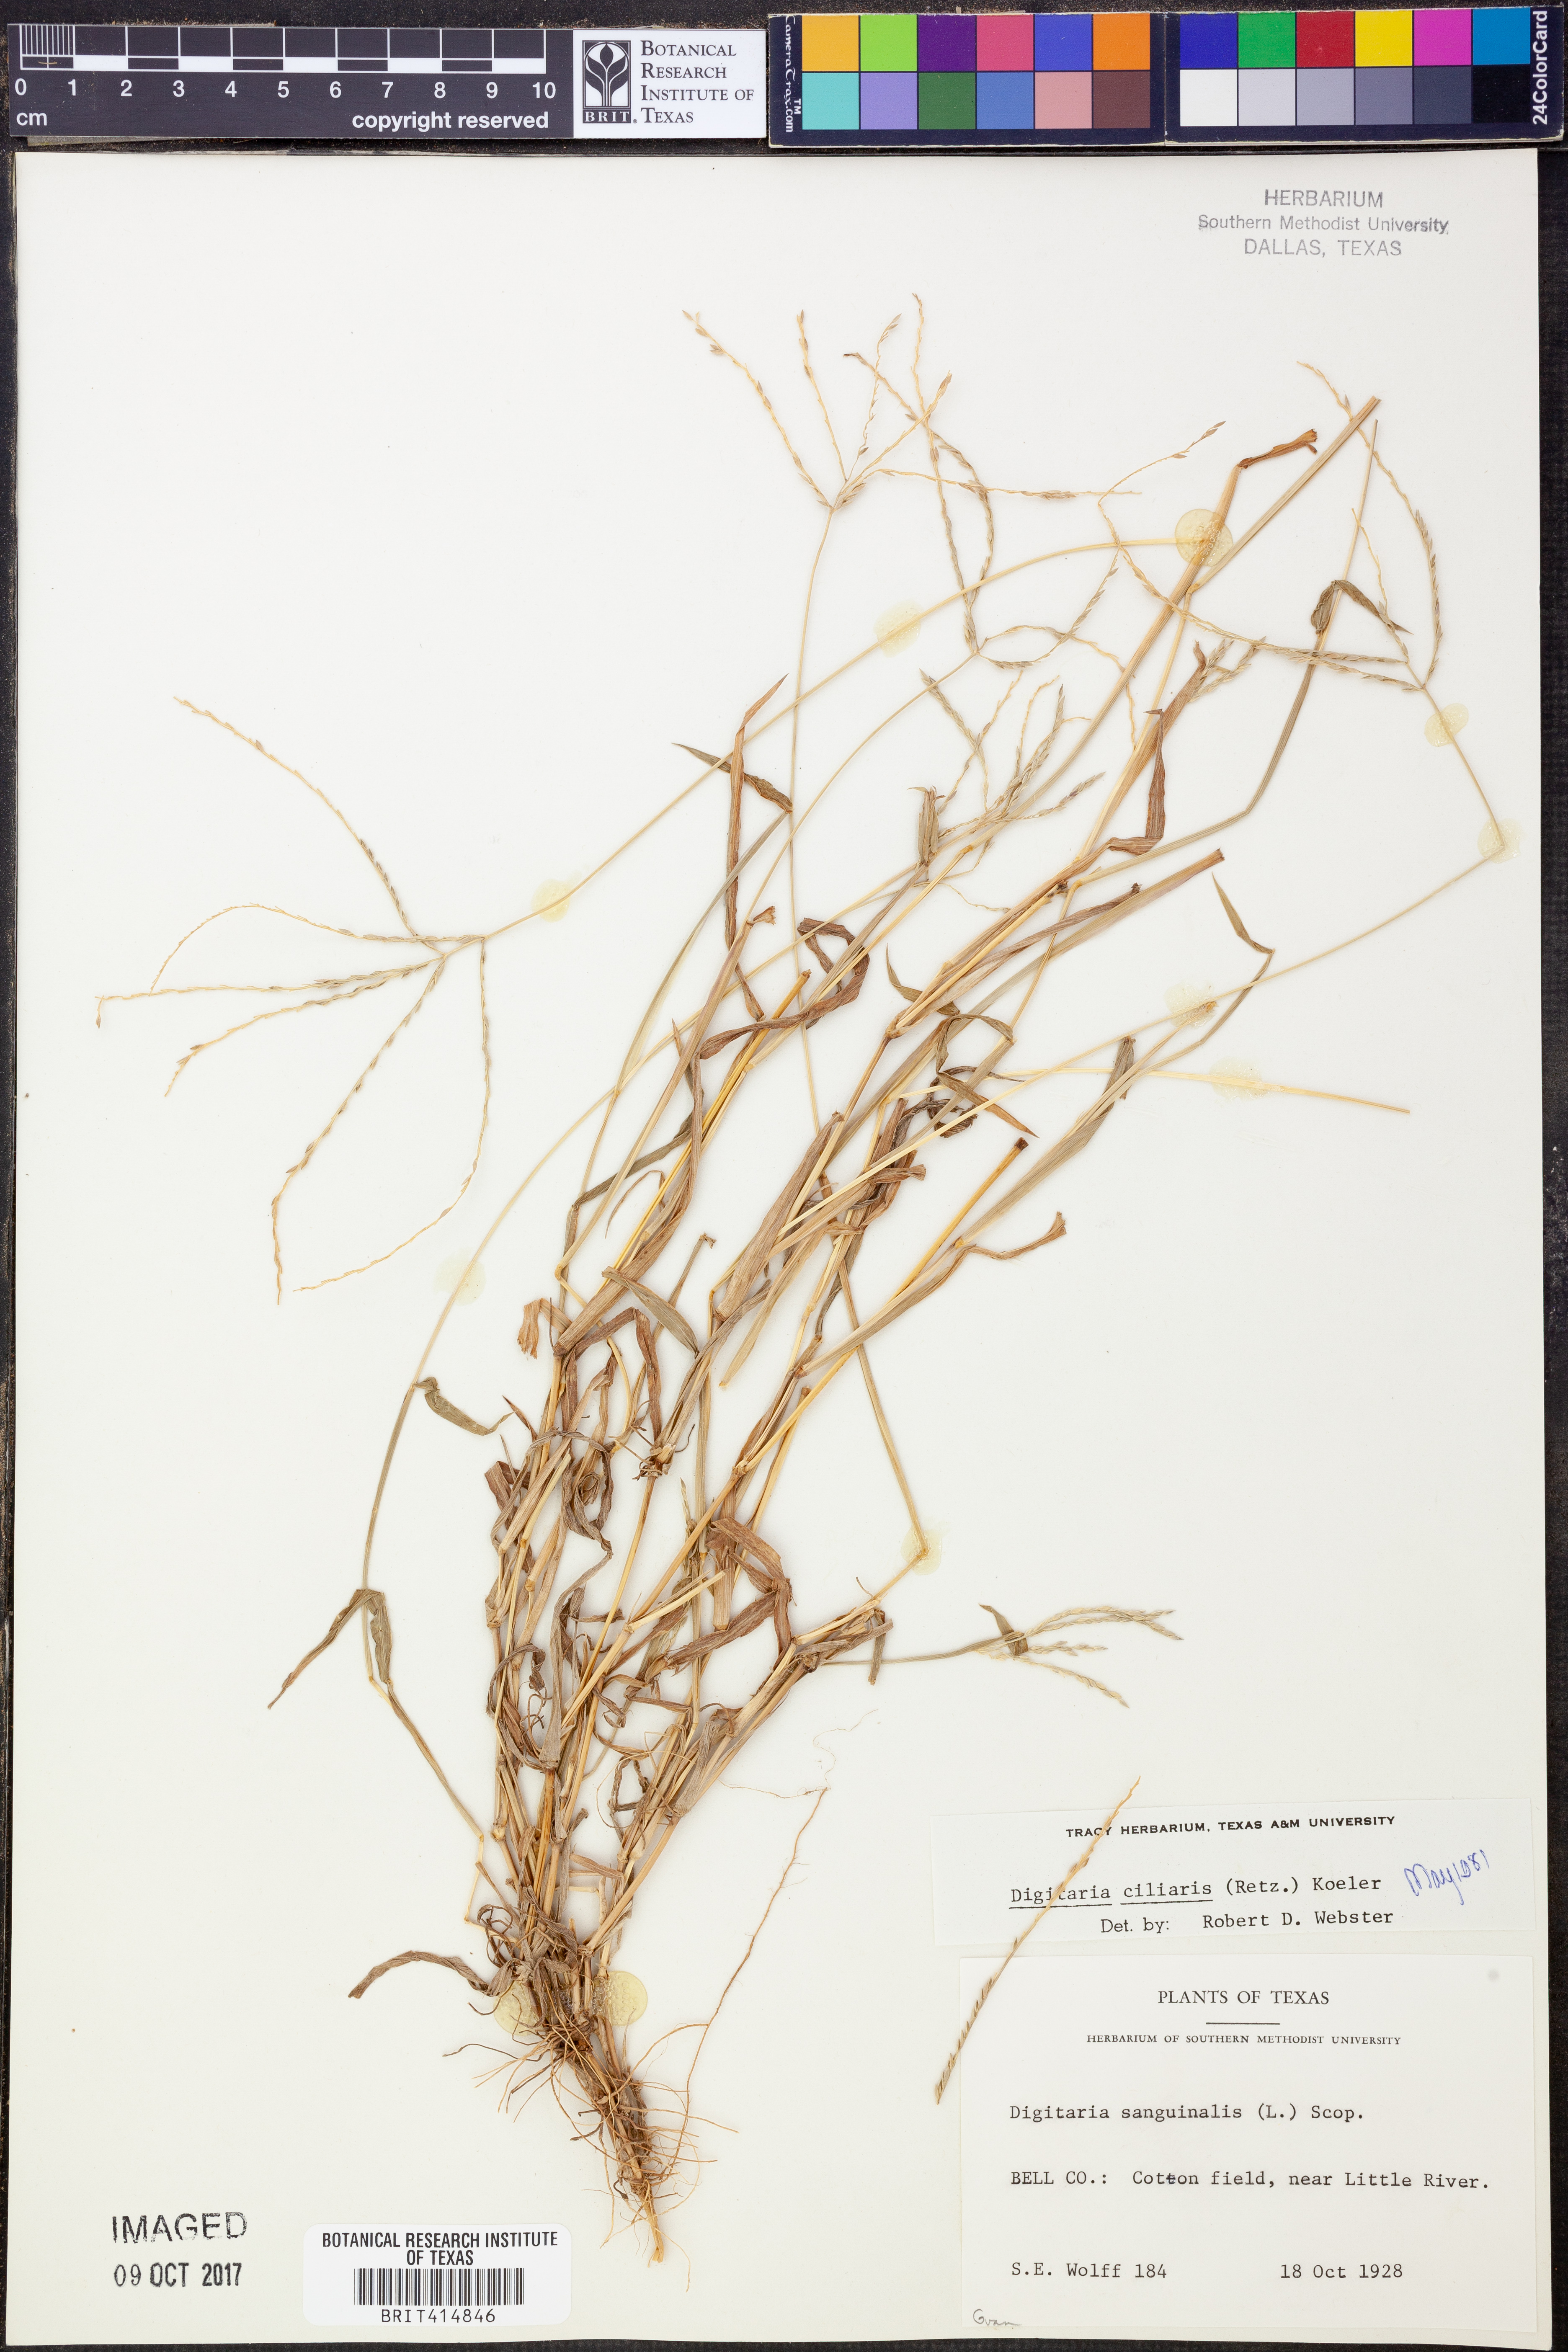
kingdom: Plantae
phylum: Tracheophyta
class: Liliopsida
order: Poales
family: Poaceae
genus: Digitaria
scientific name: Digitaria ciliaris
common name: Tropical finger-grass
